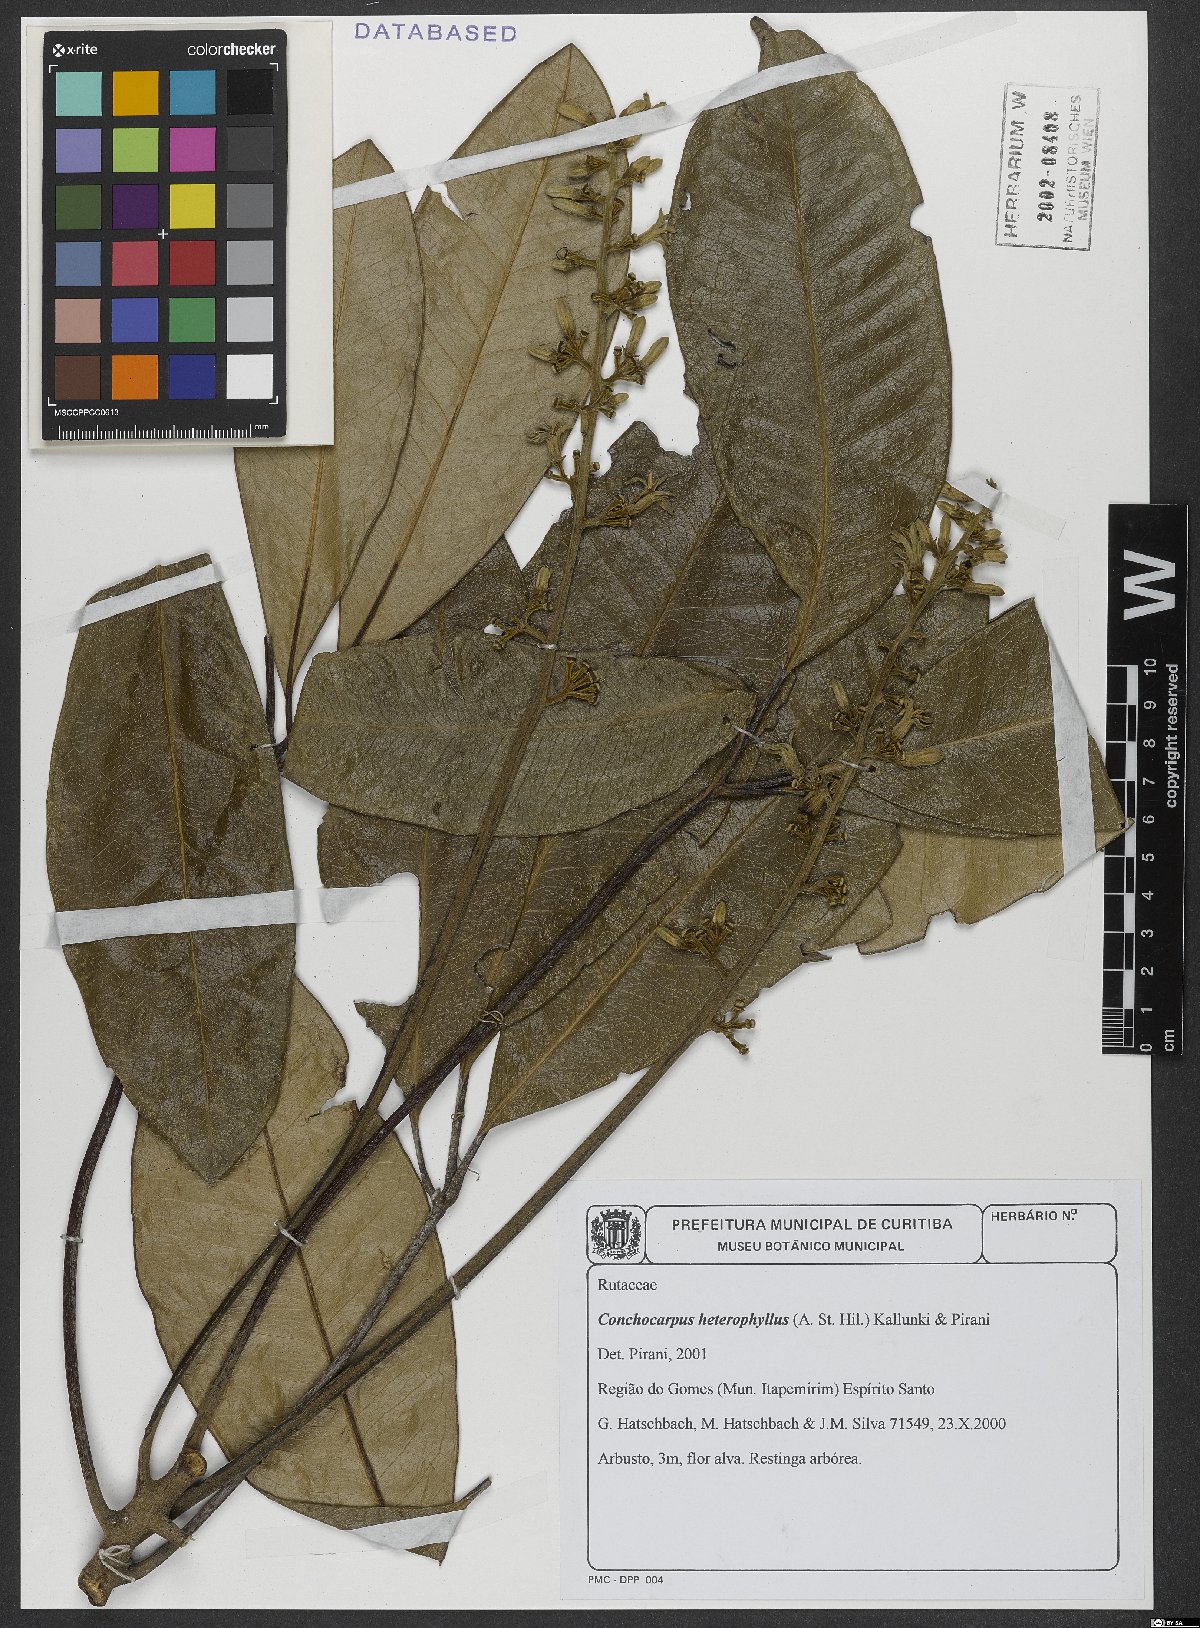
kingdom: Plantae
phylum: Tracheophyta
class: Magnoliopsida
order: Sapindales
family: Rutaceae
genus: Conchocarpus
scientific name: Conchocarpus heterophyllus
